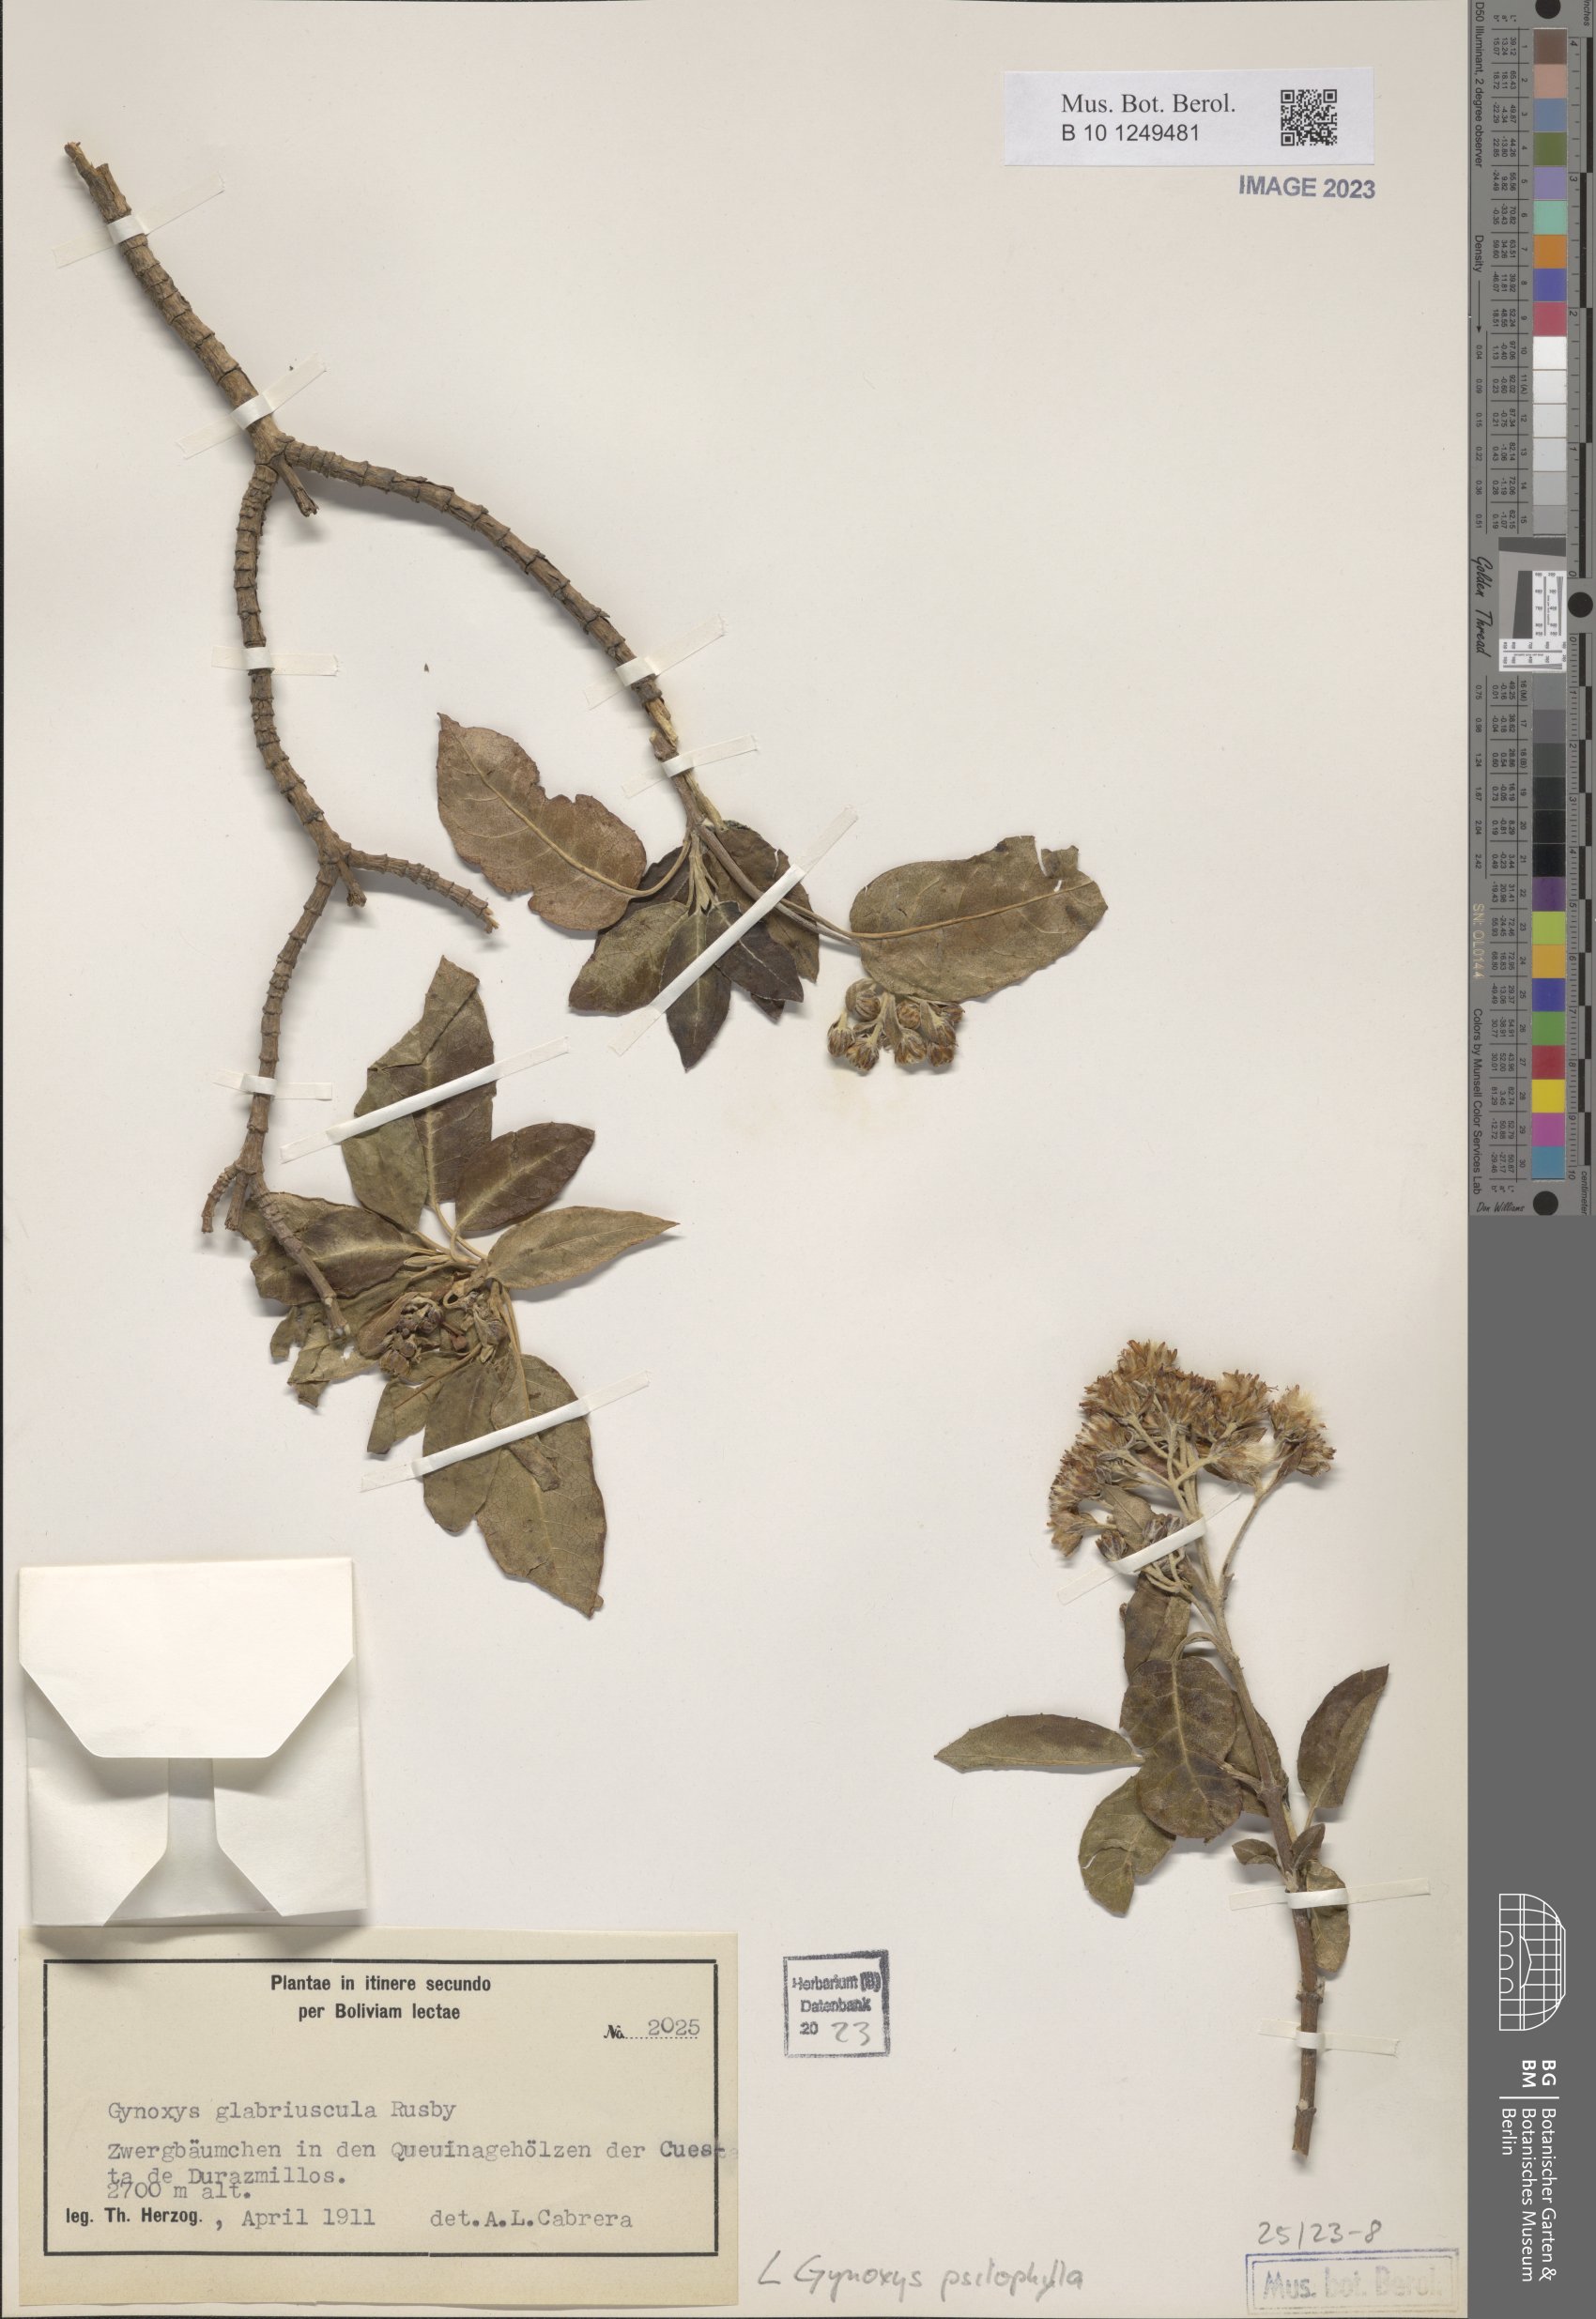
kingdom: Plantae
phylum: Tracheophyta
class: Magnoliopsida
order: Asterales
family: Asteraceae
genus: Gynoxys
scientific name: Gynoxys psilophylla
